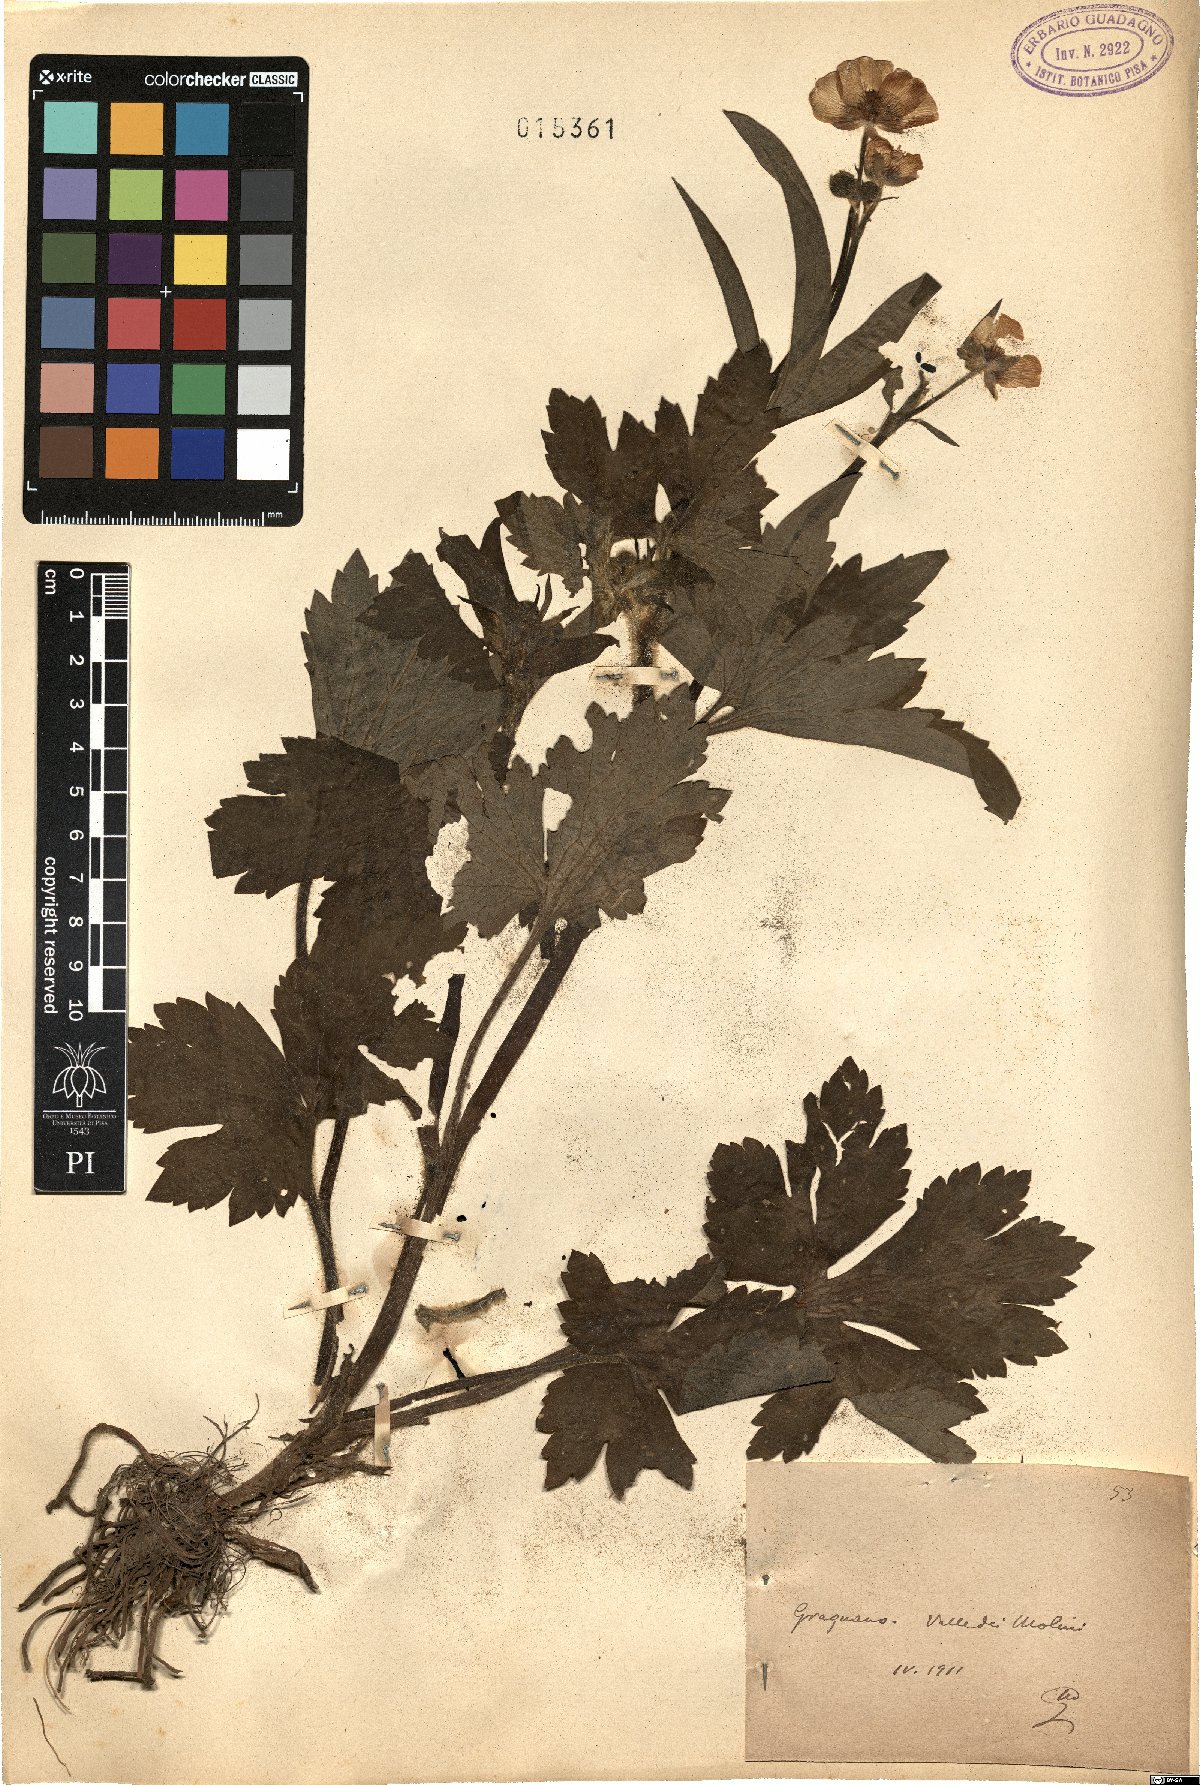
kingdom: Plantae
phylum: Tracheophyta
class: Magnoliopsida
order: Ranunculales
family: Ranunculaceae
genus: Ranunculus
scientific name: Ranunculus
